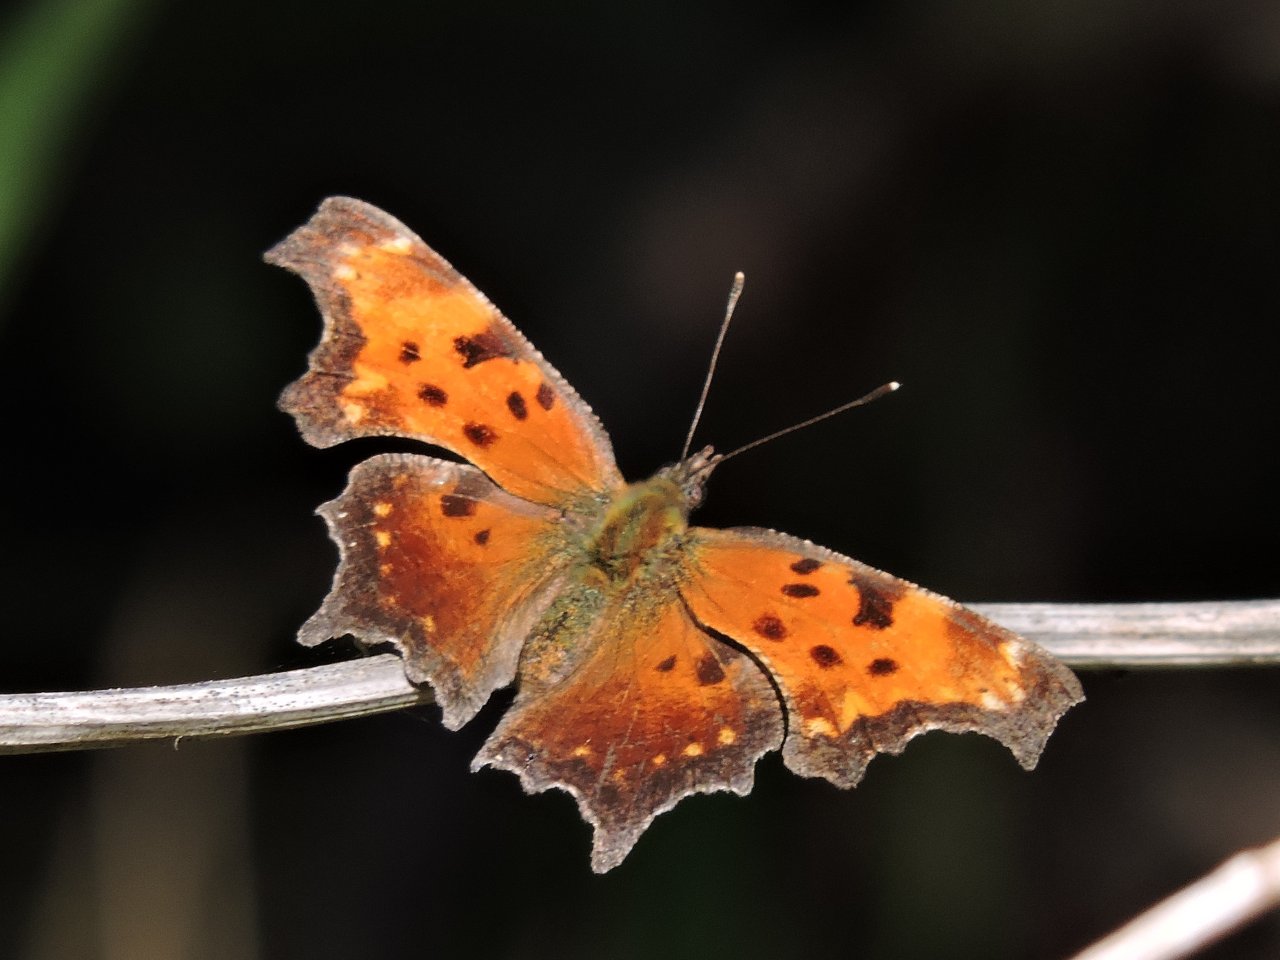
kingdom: Animalia
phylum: Arthropoda
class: Insecta
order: Lepidoptera
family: Nymphalidae
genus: Polygonia
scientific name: Polygonia progne
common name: Gray Comma
